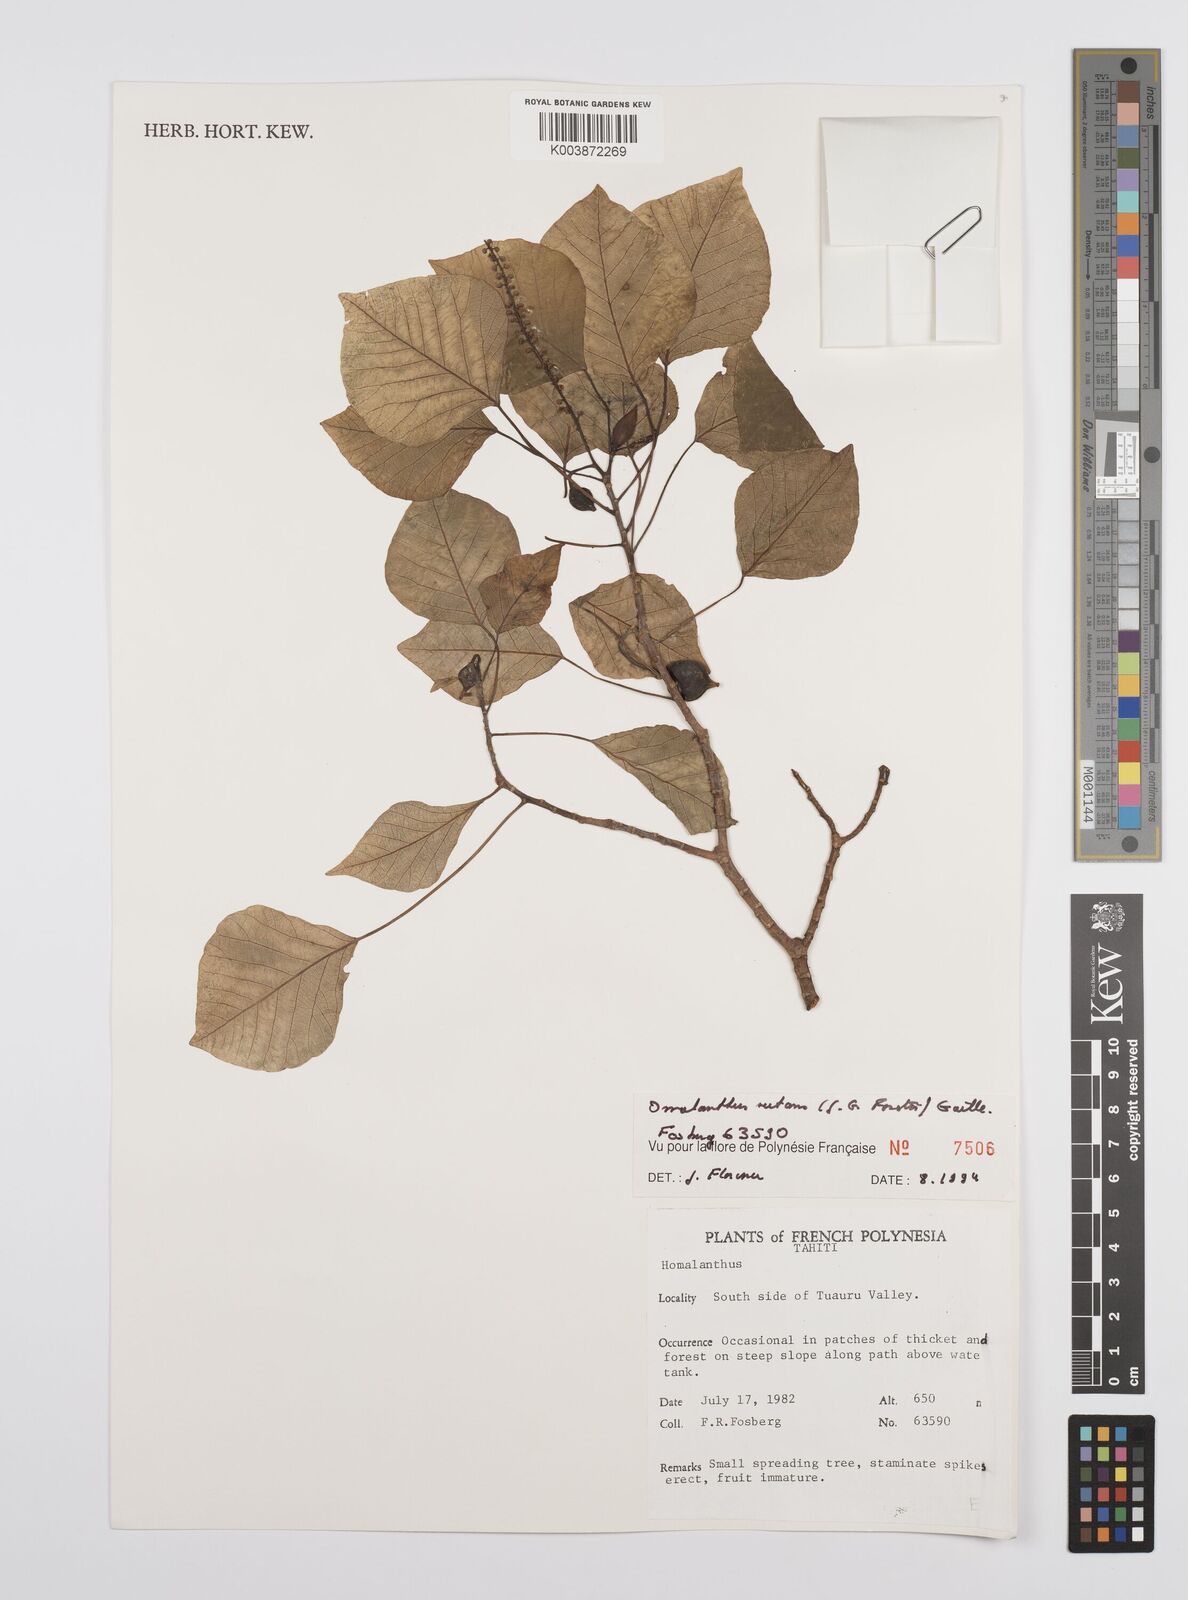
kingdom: Plantae
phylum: Tracheophyta
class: Magnoliopsida
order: Malpighiales
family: Euphorbiaceae
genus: Homalanthus
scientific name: Homalanthus nutans
